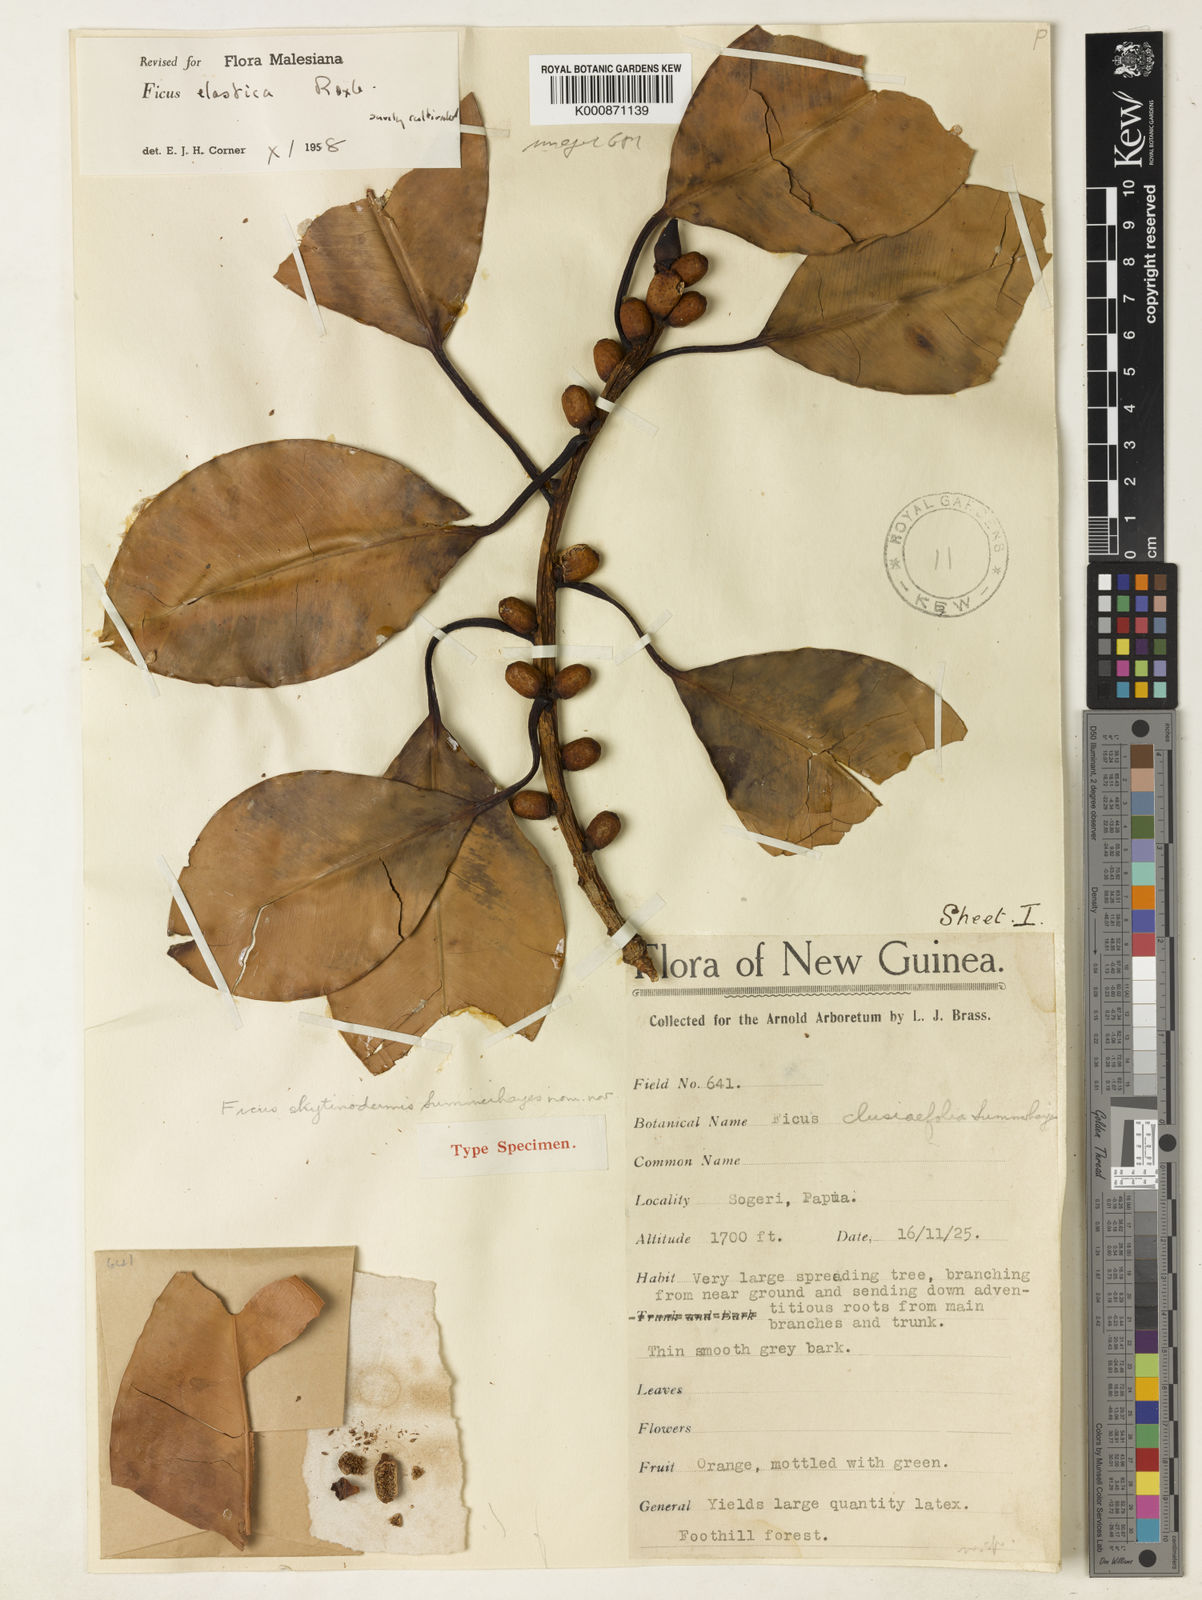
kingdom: Plantae
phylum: Tracheophyta
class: Magnoliopsida
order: Rosales
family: Moraceae
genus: Ficus
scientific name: Ficus
